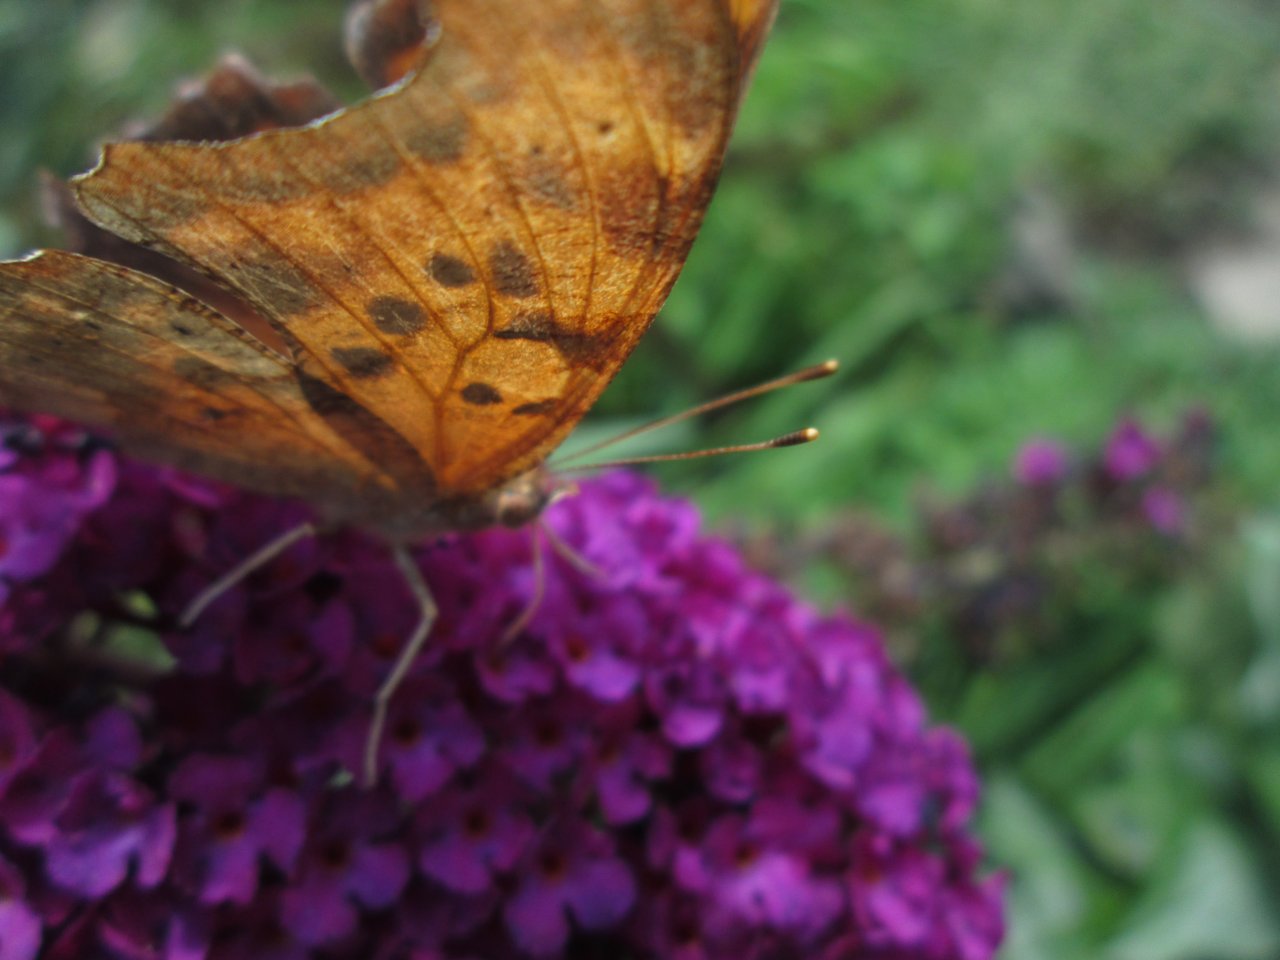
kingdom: Animalia
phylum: Arthropoda
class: Insecta
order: Lepidoptera
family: Nymphalidae
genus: Asterocampa
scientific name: Asterocampa clyton
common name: Tawny Emperor
